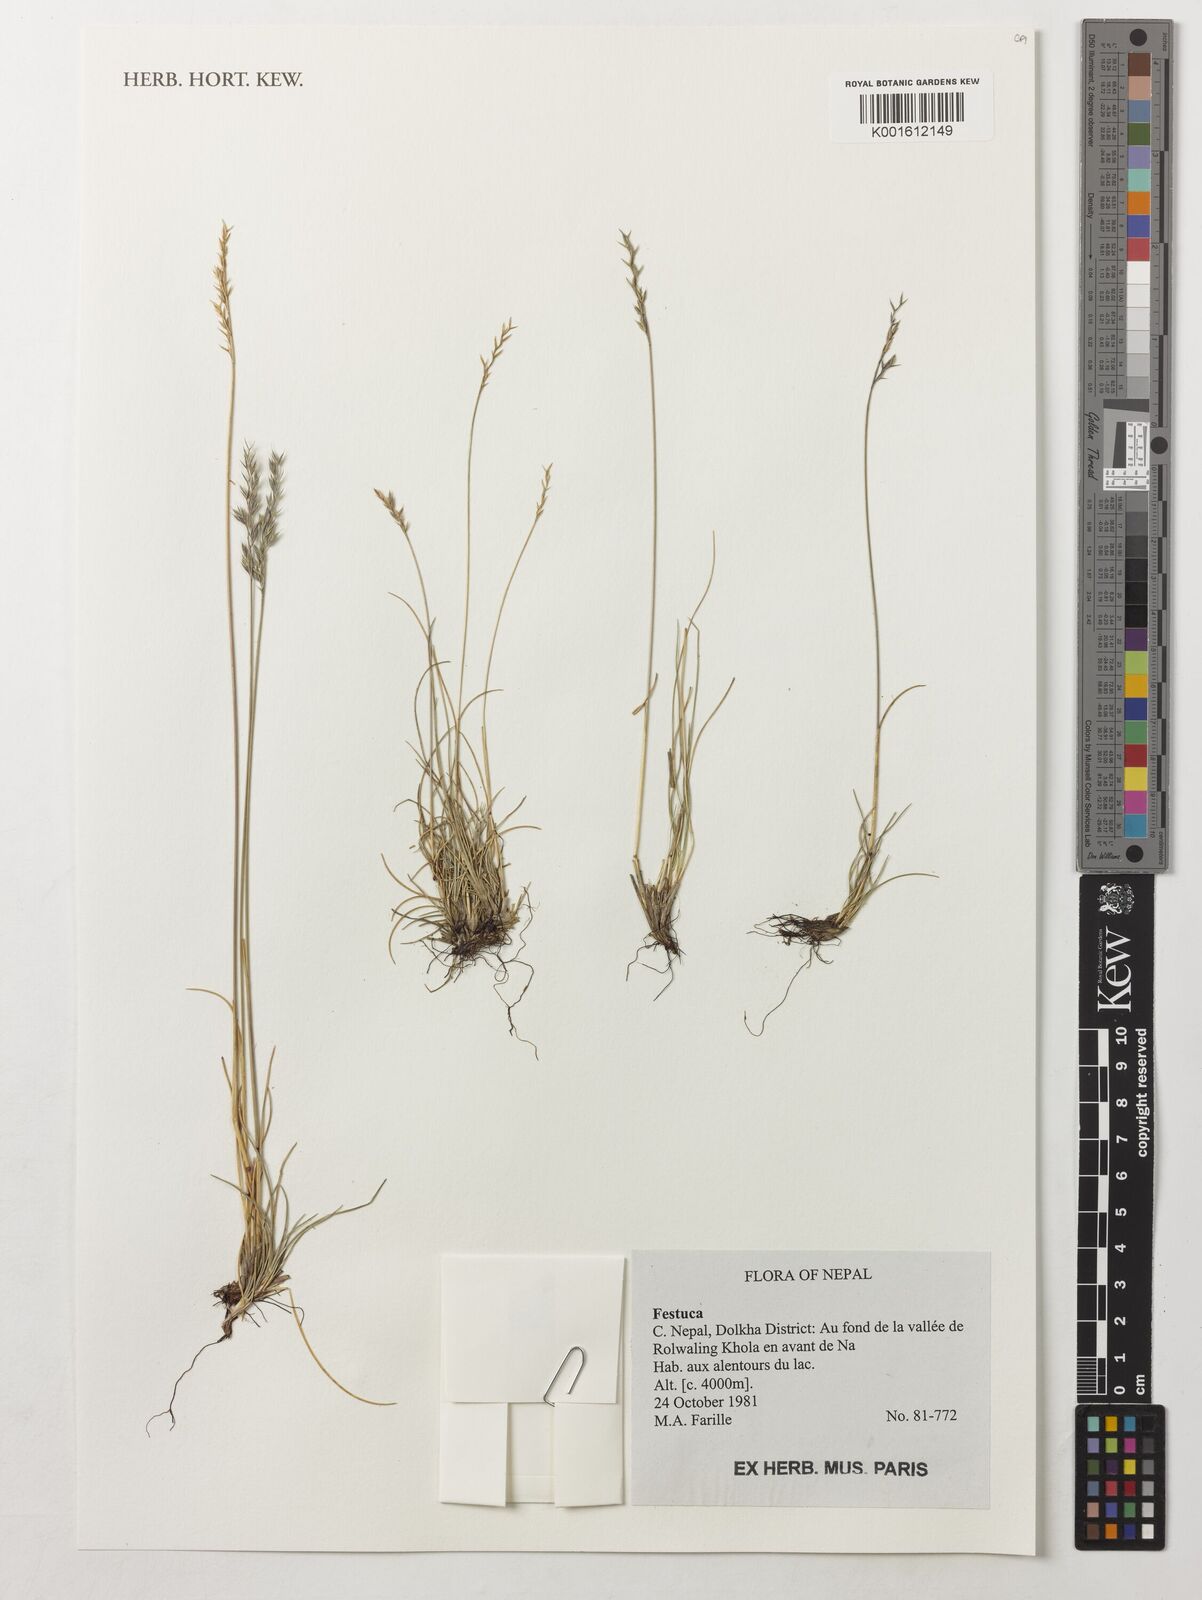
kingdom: Plantae
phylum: Tracheophyta
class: Liliopsida
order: Poales
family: Poaceae
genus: Festuca
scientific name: Festuca
